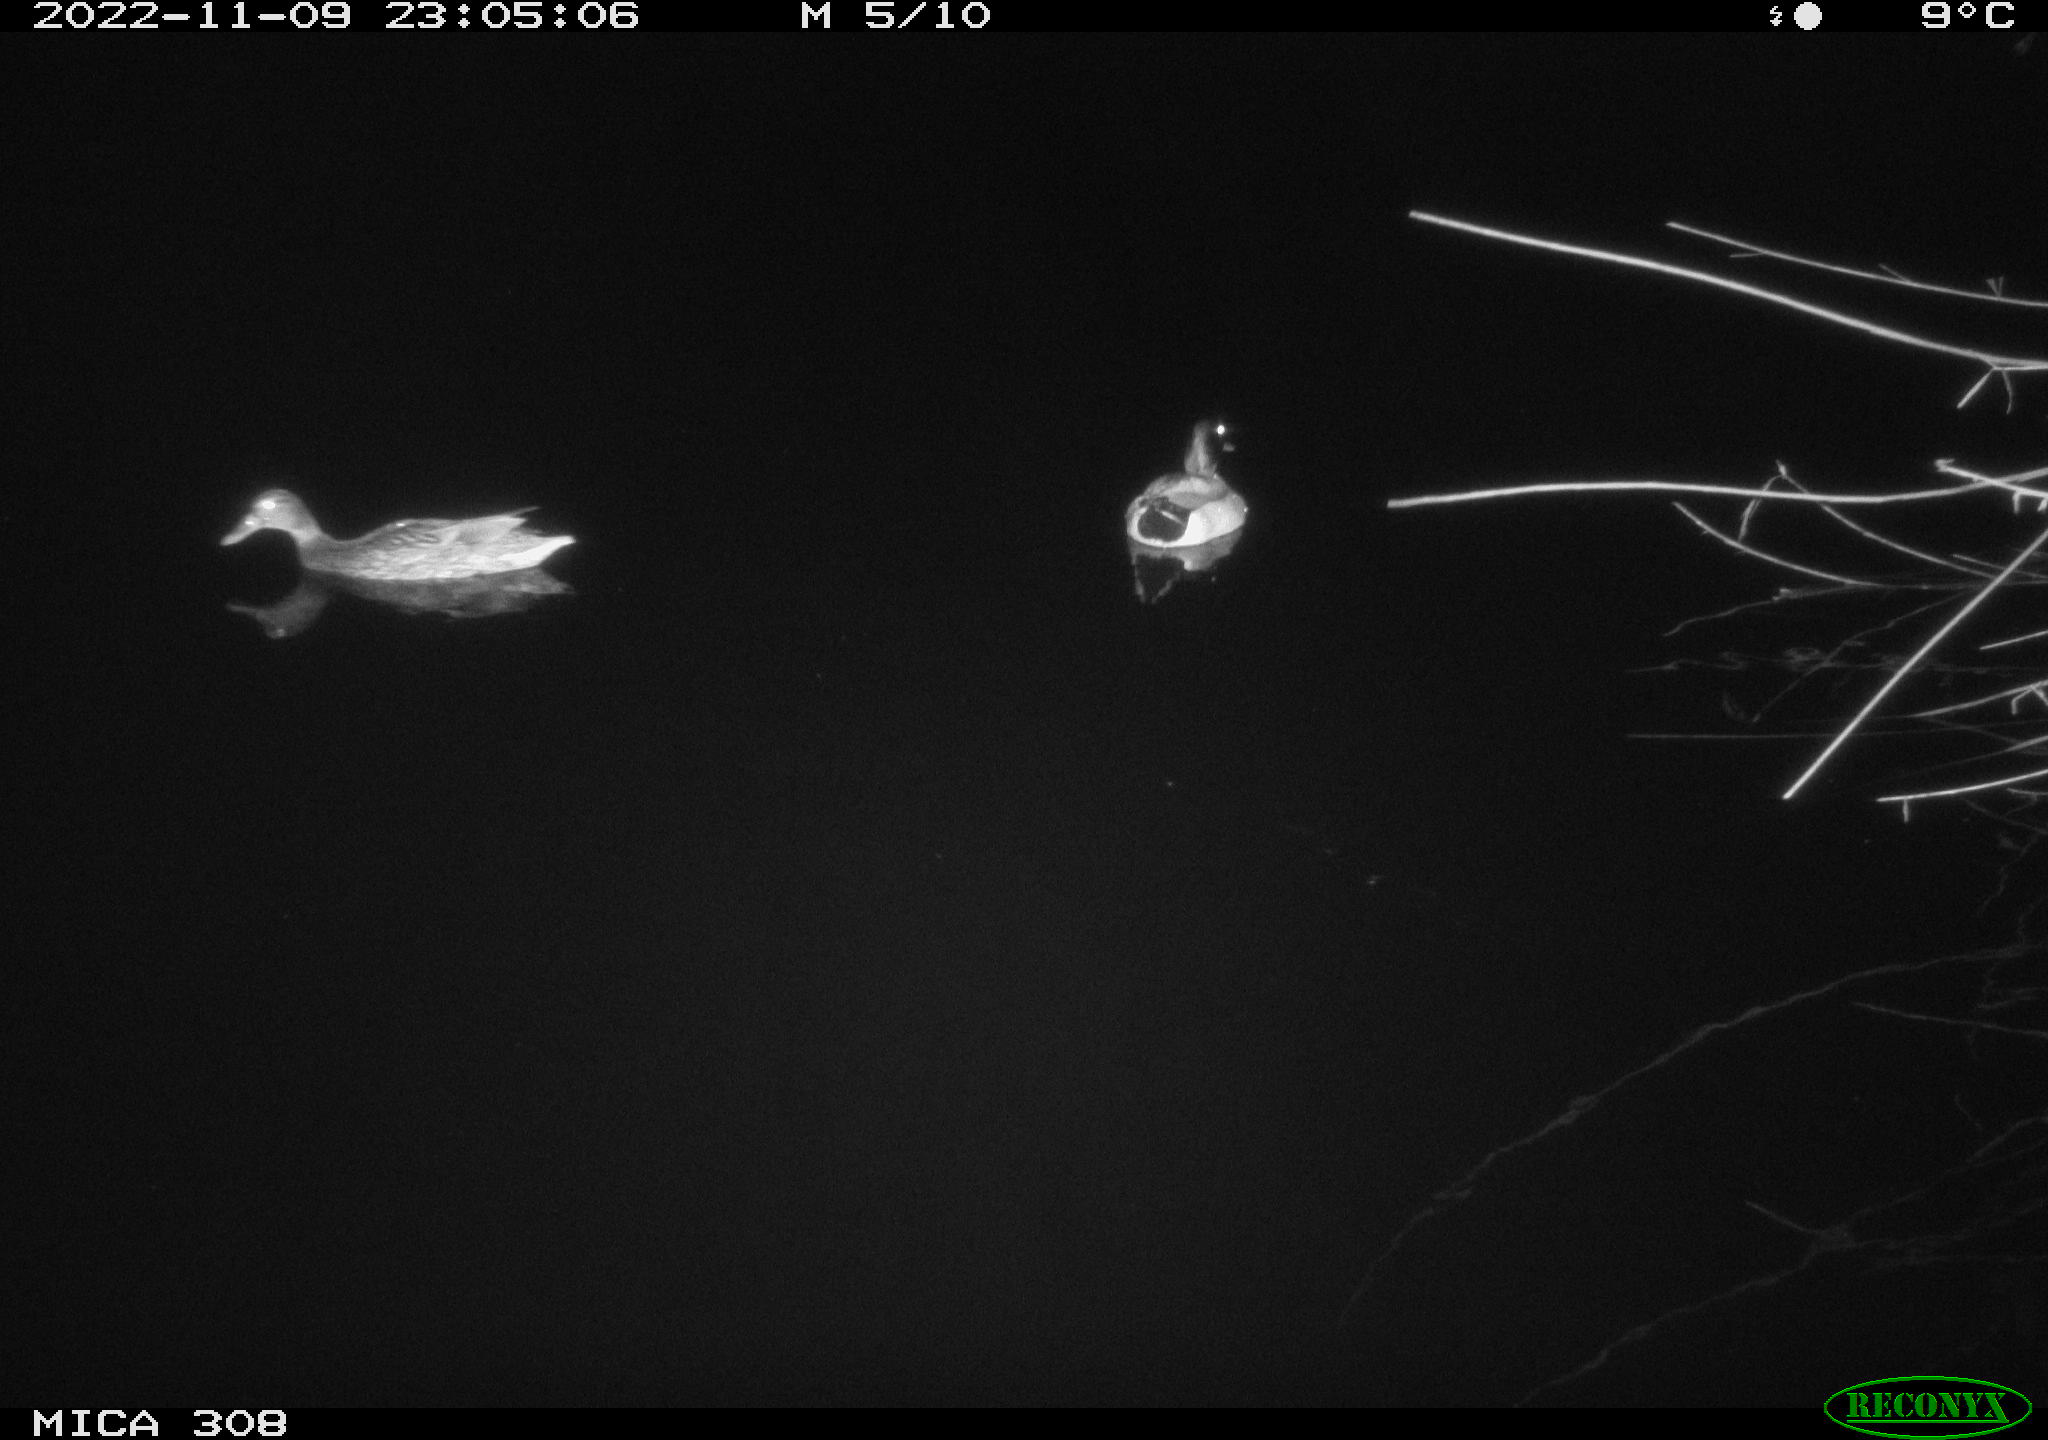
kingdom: Animalia
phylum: Chordata
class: Mammalia
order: Rodentia
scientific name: Rodentia
